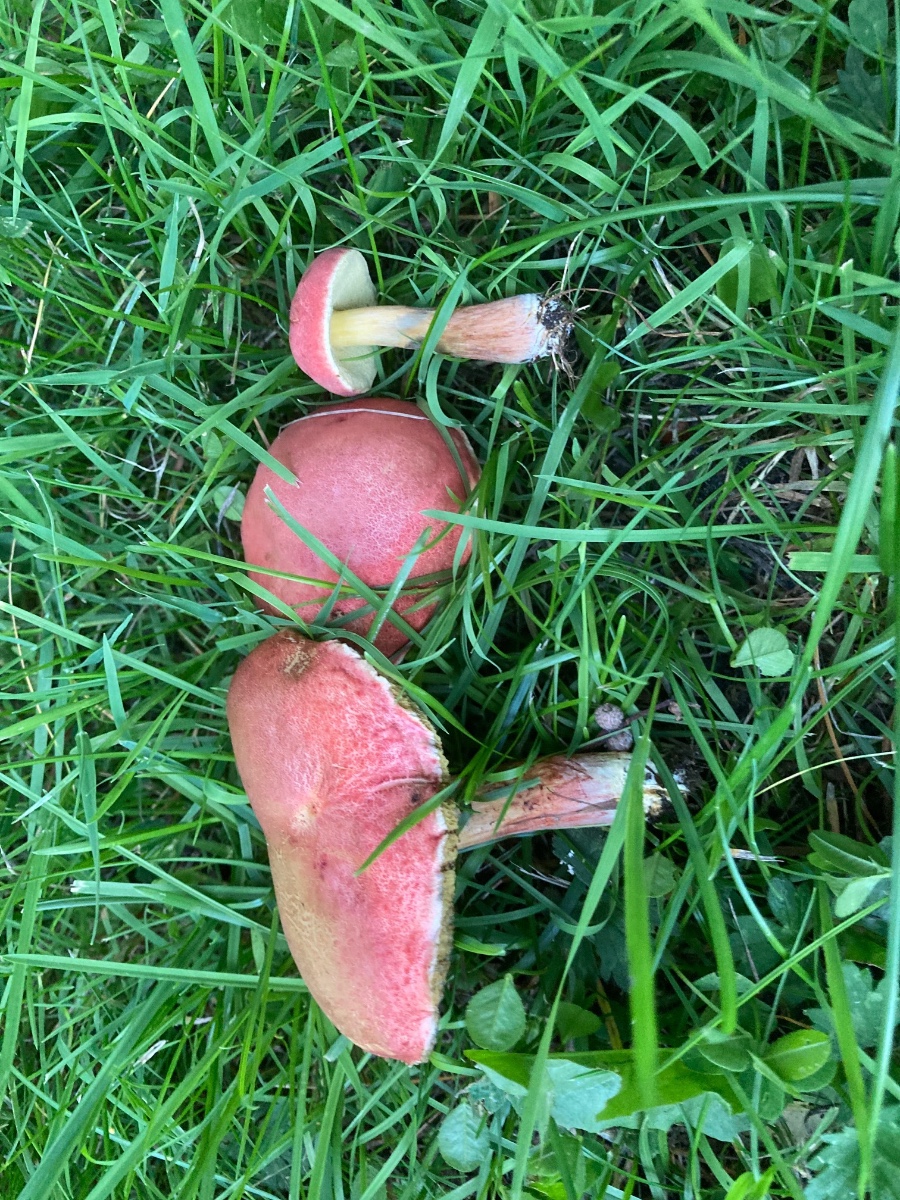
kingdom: Fungi
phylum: Basidiomycota
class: Agaricomycetes
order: Boletales
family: Boletaceae
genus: Hortiboletus
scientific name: Hortiboletus rubellus
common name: blodrød rørhat
